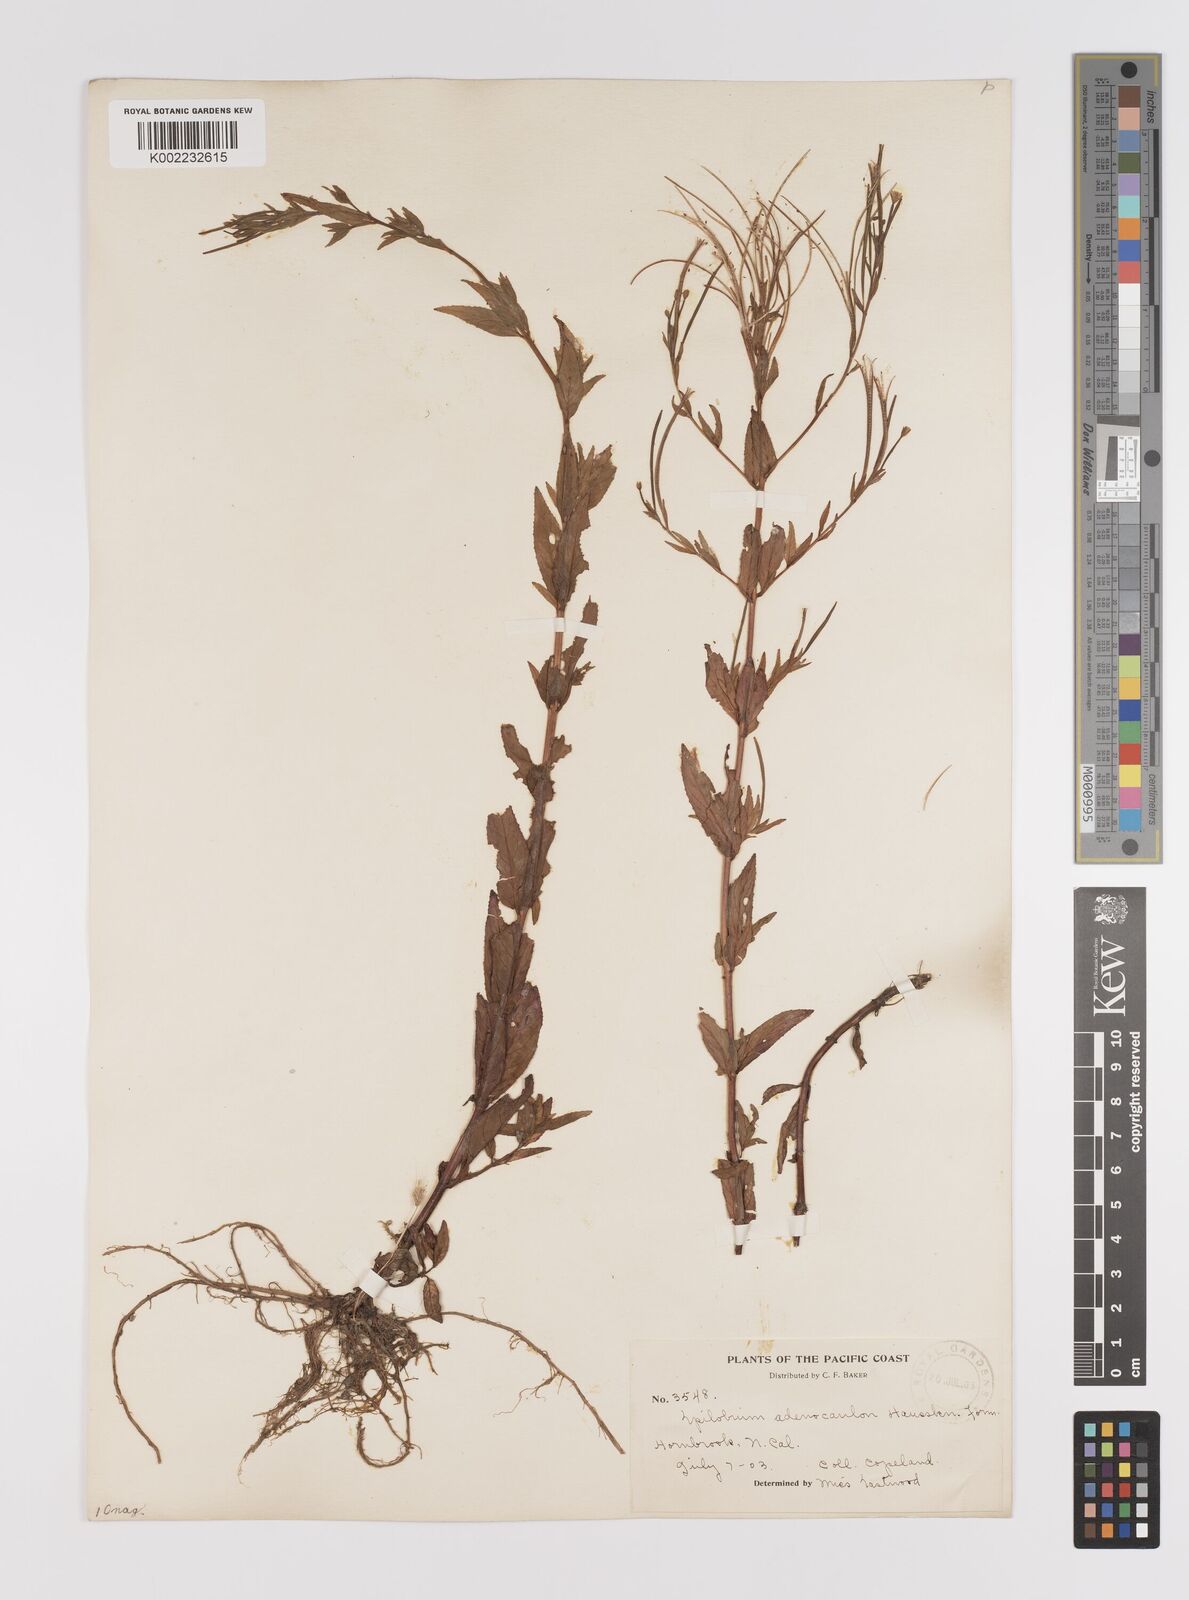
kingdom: Plantae
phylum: Tracheophyta
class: Magnoliopsida
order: Myrtales
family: Onagraceae
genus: Epilobium
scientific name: Epilobium ciliatum
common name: American willowherb
